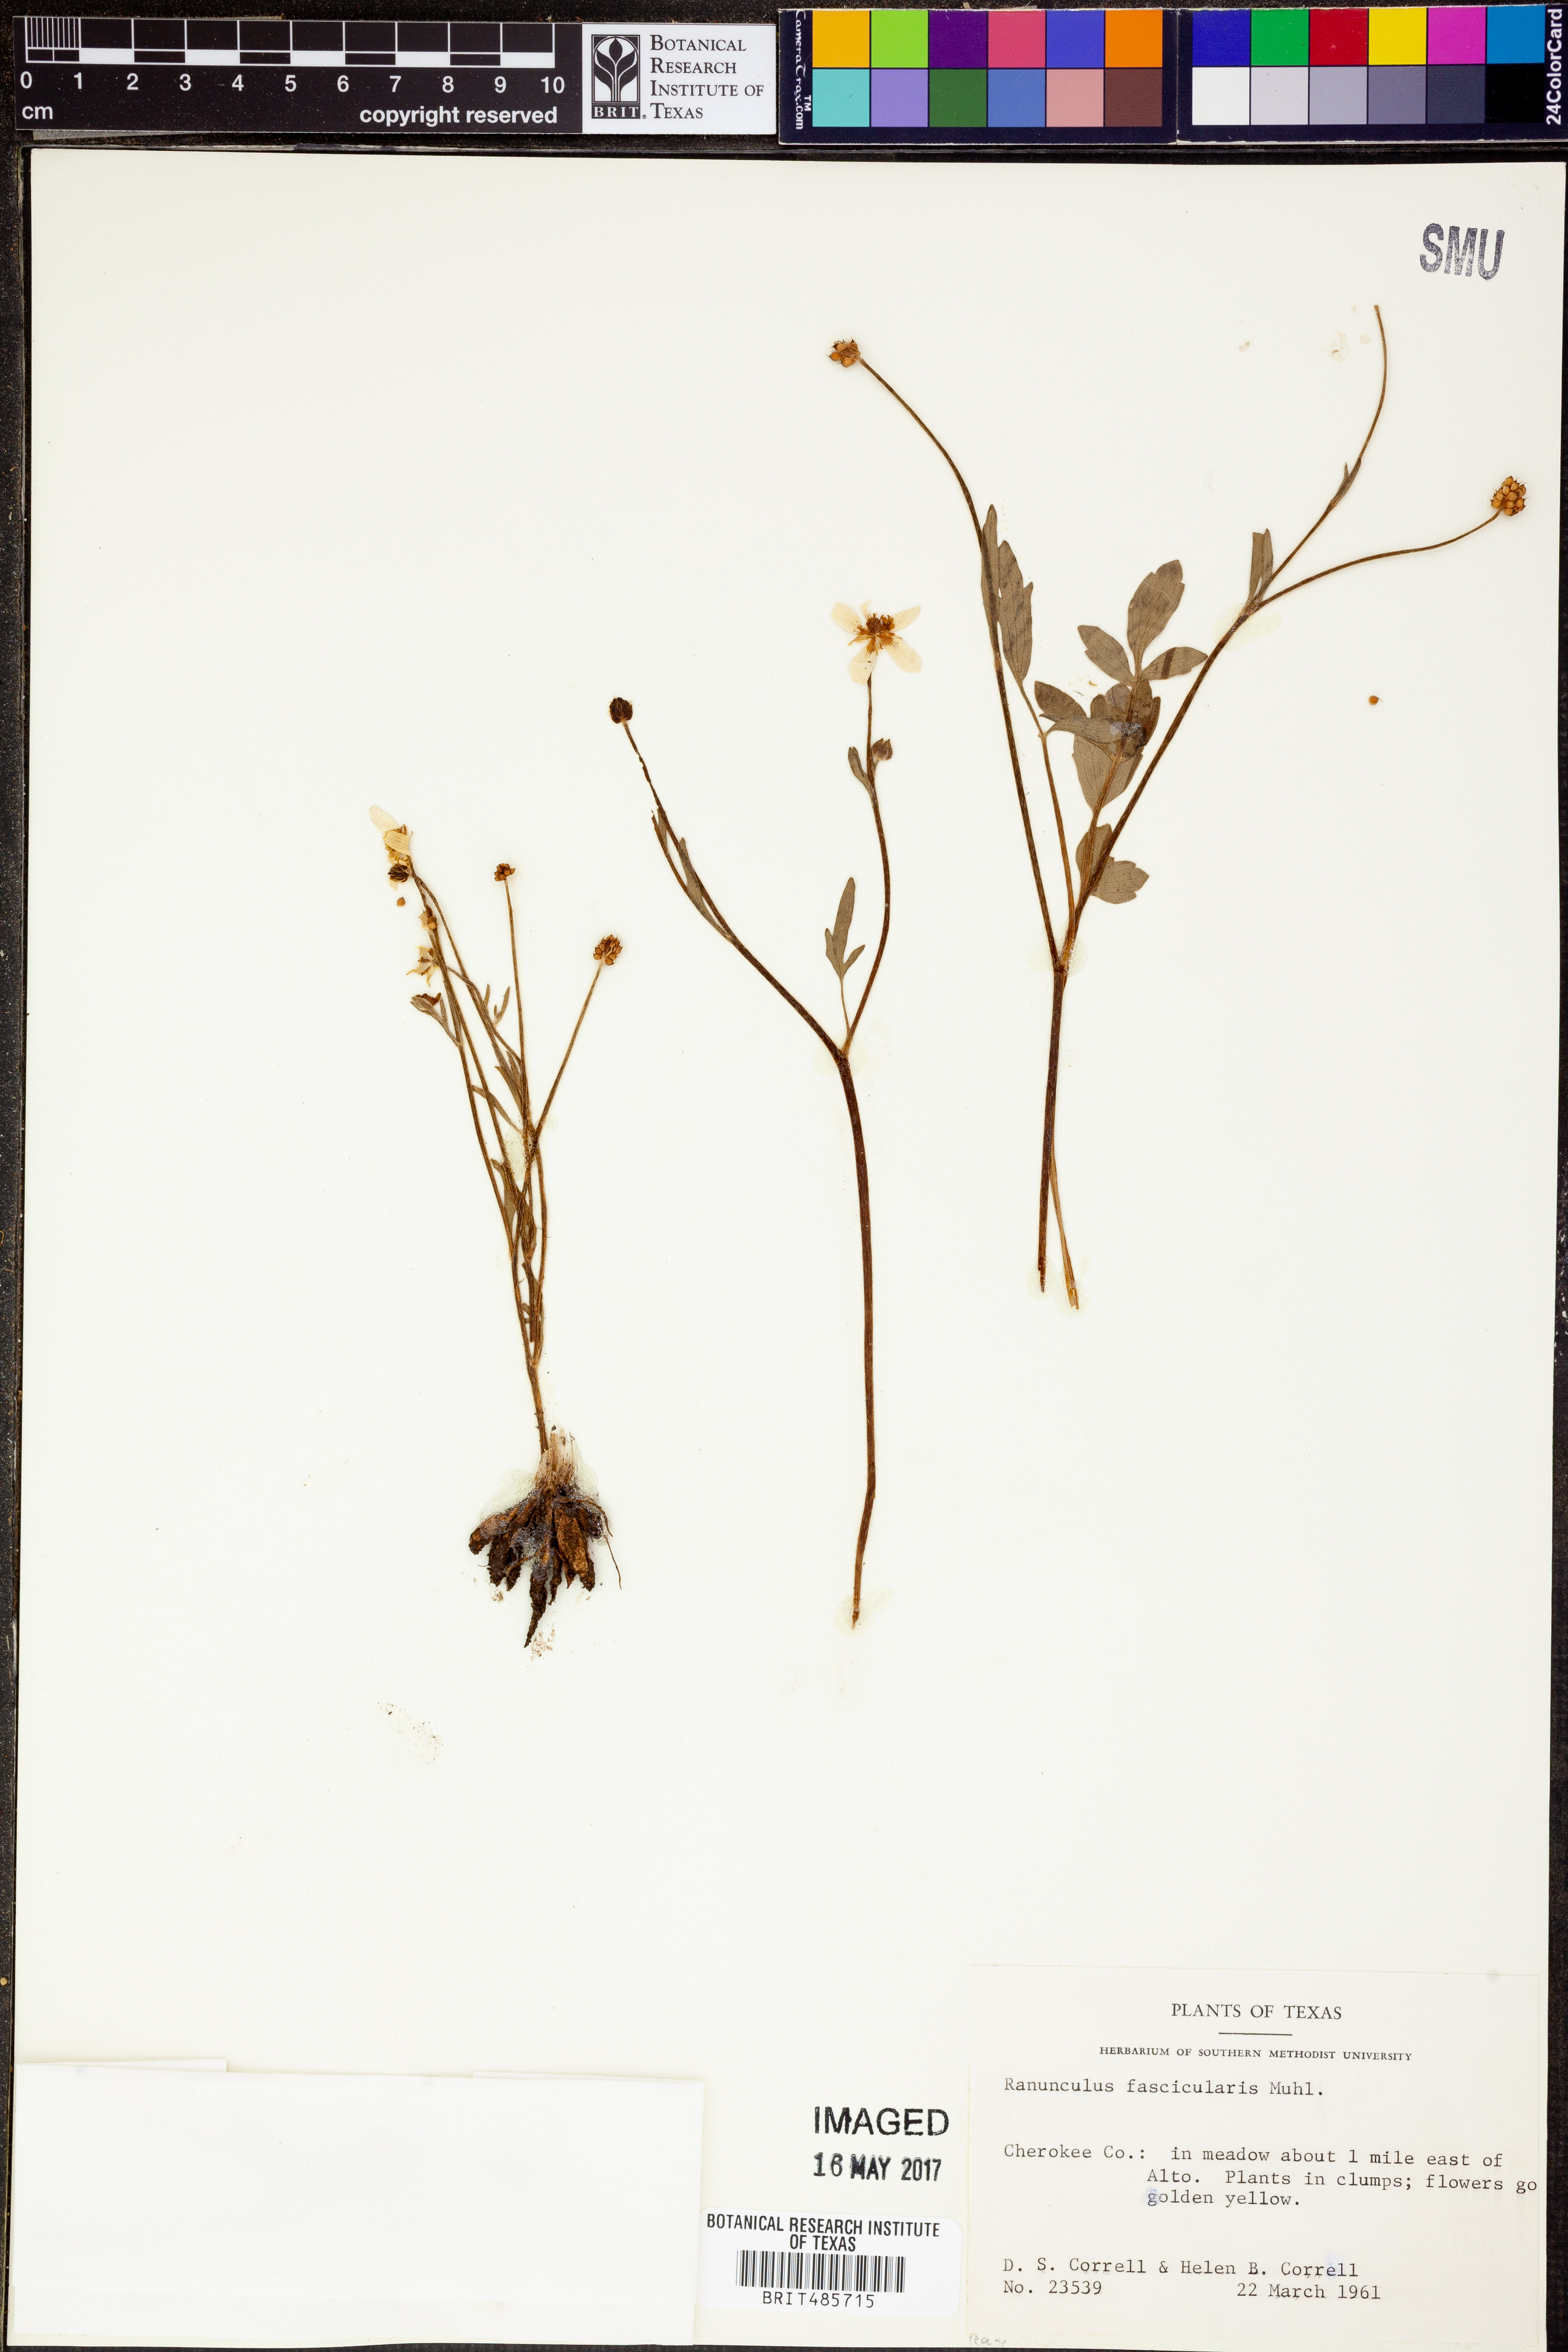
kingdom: Plantae
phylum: Tracheophyta
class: Magnoliopsida
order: Ranunculales
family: Ranunculaceae
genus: Ranunculus
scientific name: Ranunculus fascicularis
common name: Early buttercup
